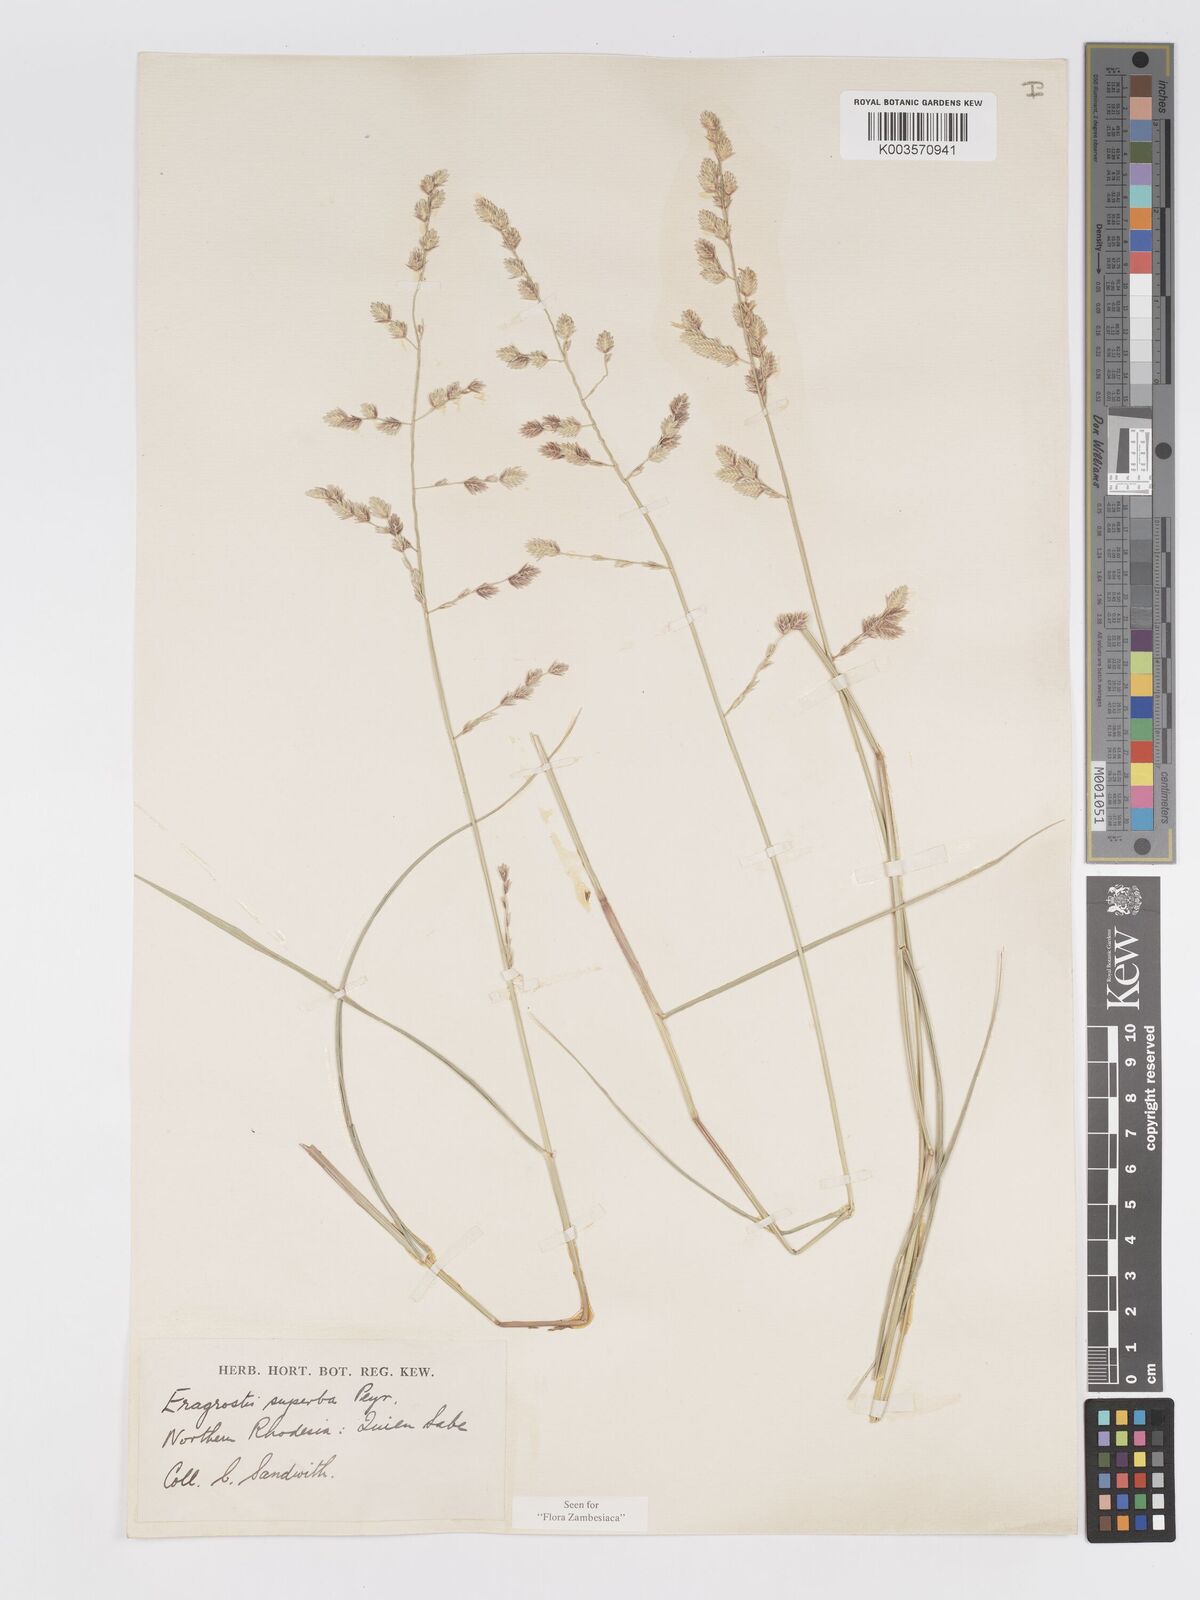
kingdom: Plantae
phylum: Tracheophyta
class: Liliopsida
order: Poales
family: Poaceae
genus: Eragrostis
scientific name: Eragrostis superba
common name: Wilman lovegrass
